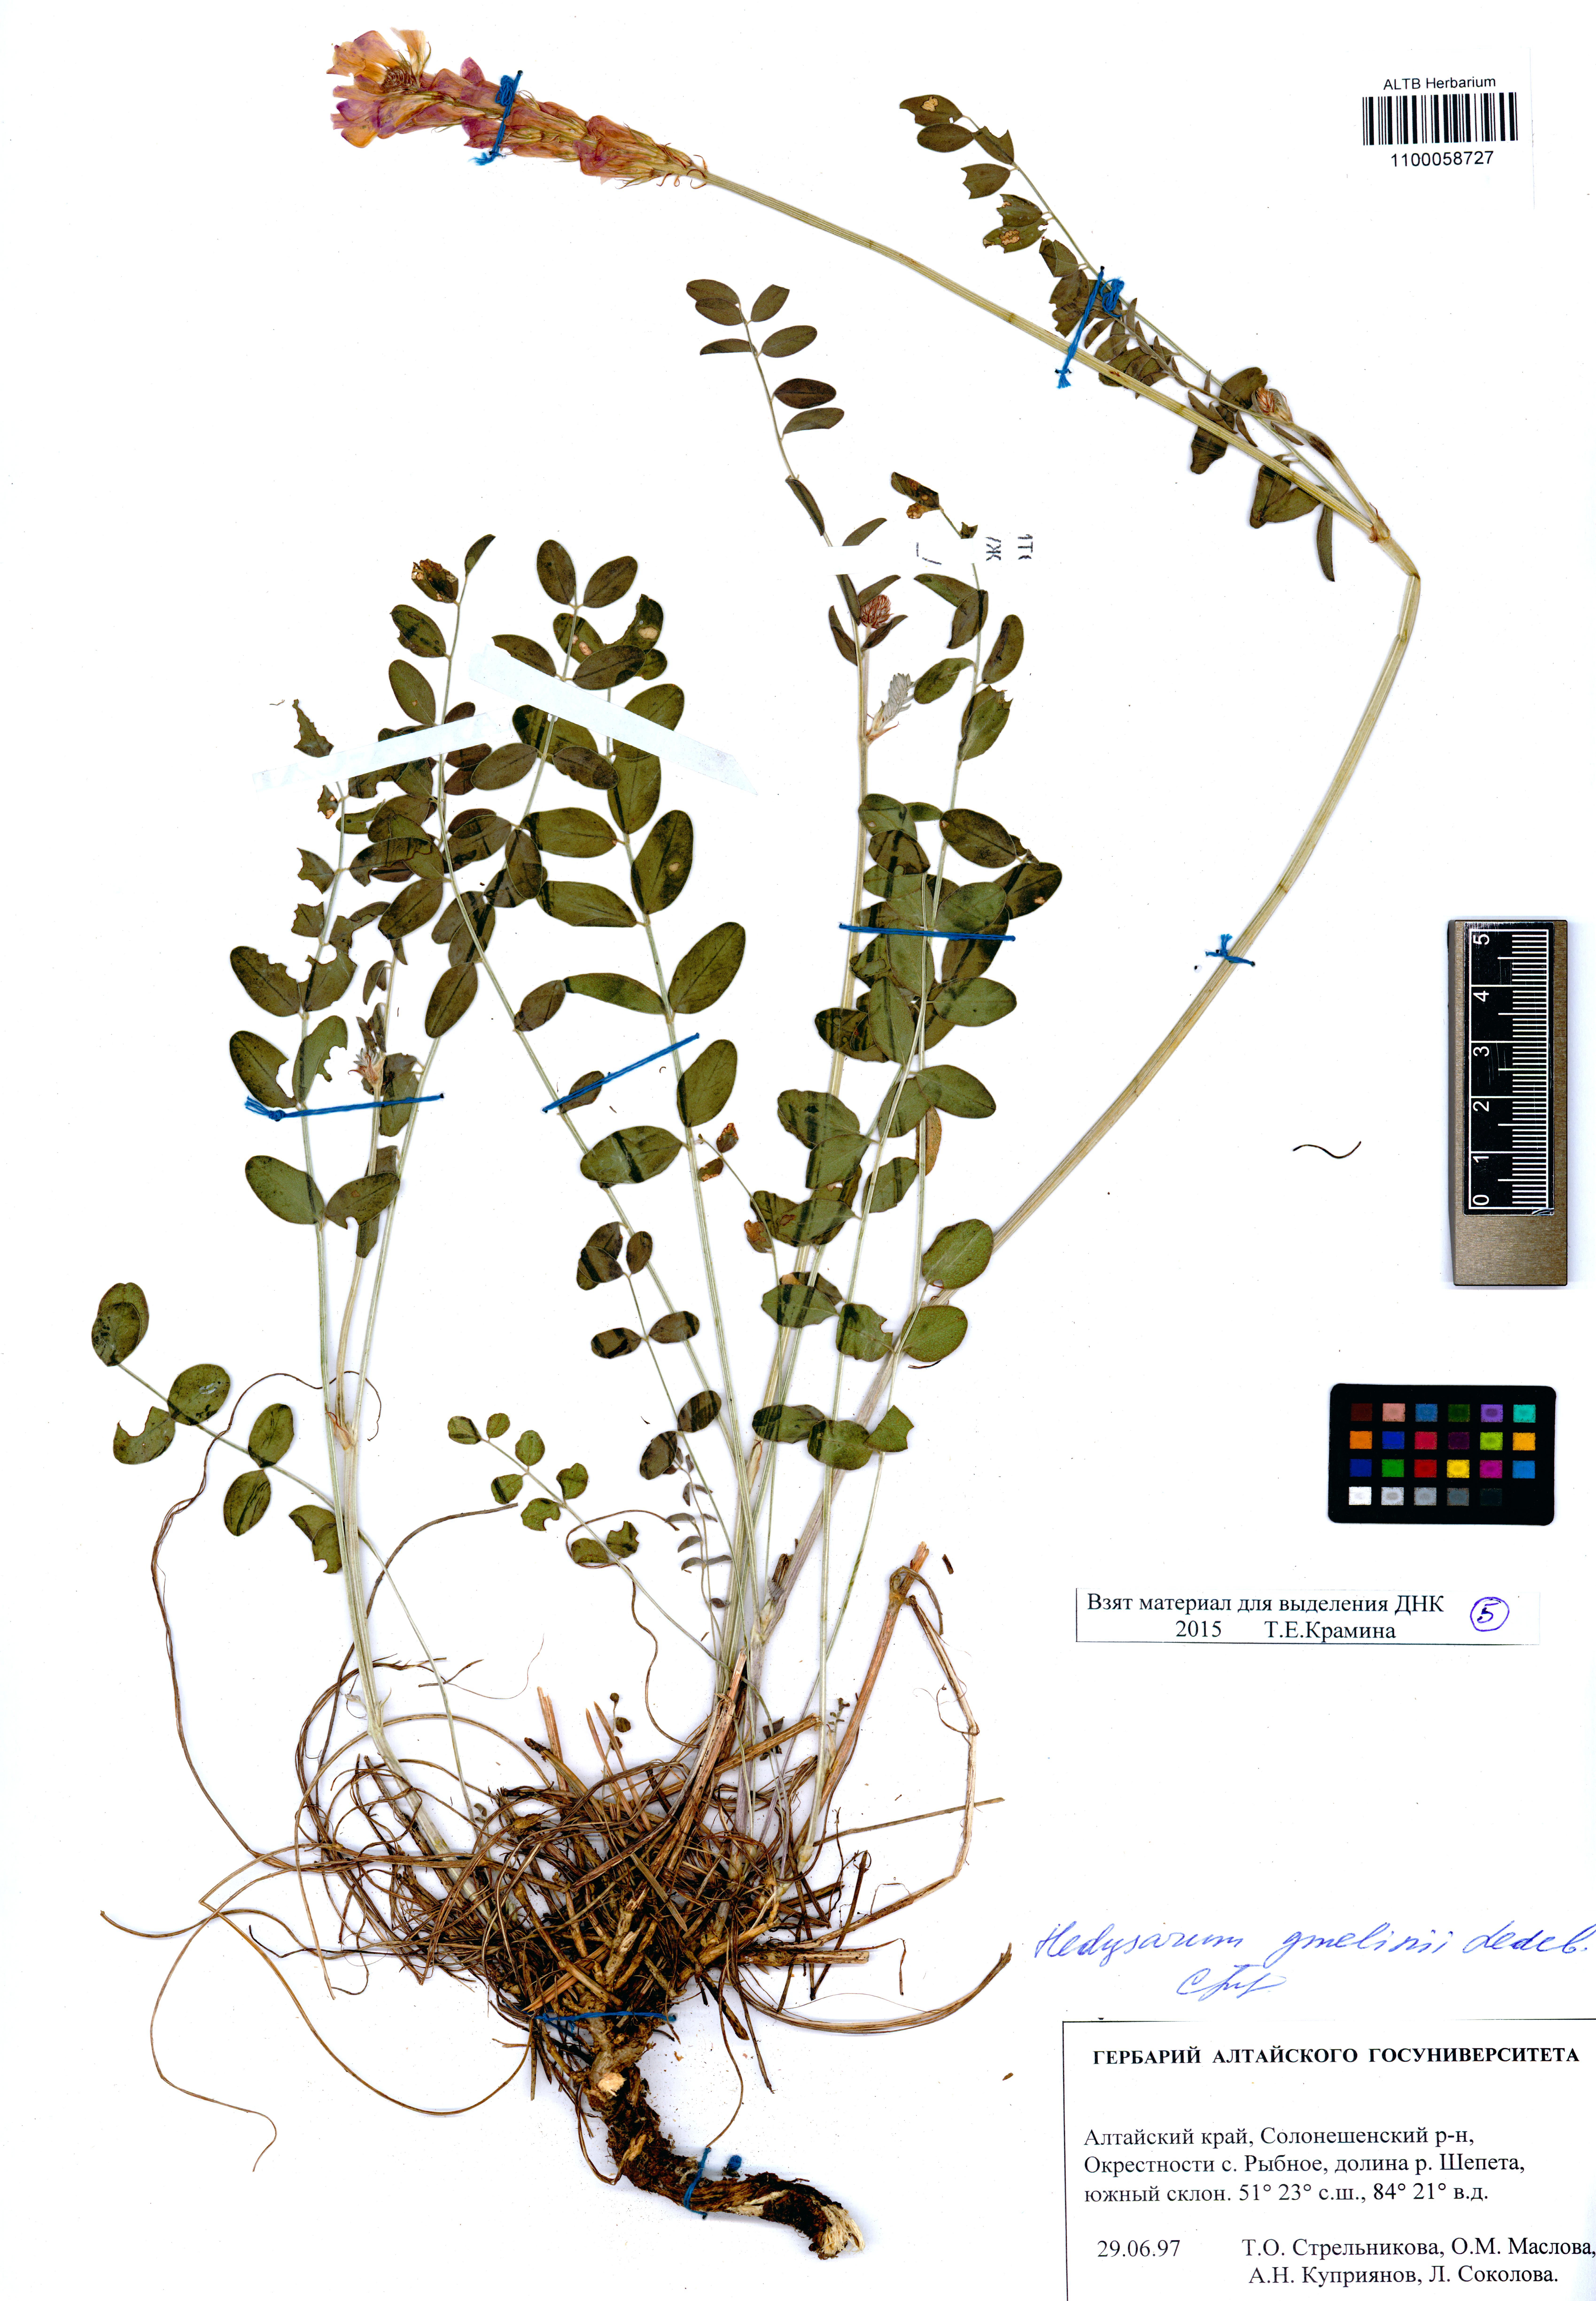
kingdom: Plantae
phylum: Tracheophyta
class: Magnoliopsida
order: Fabales
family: Fabaceae
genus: Hedysarum
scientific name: Hedysarum gmelinii
